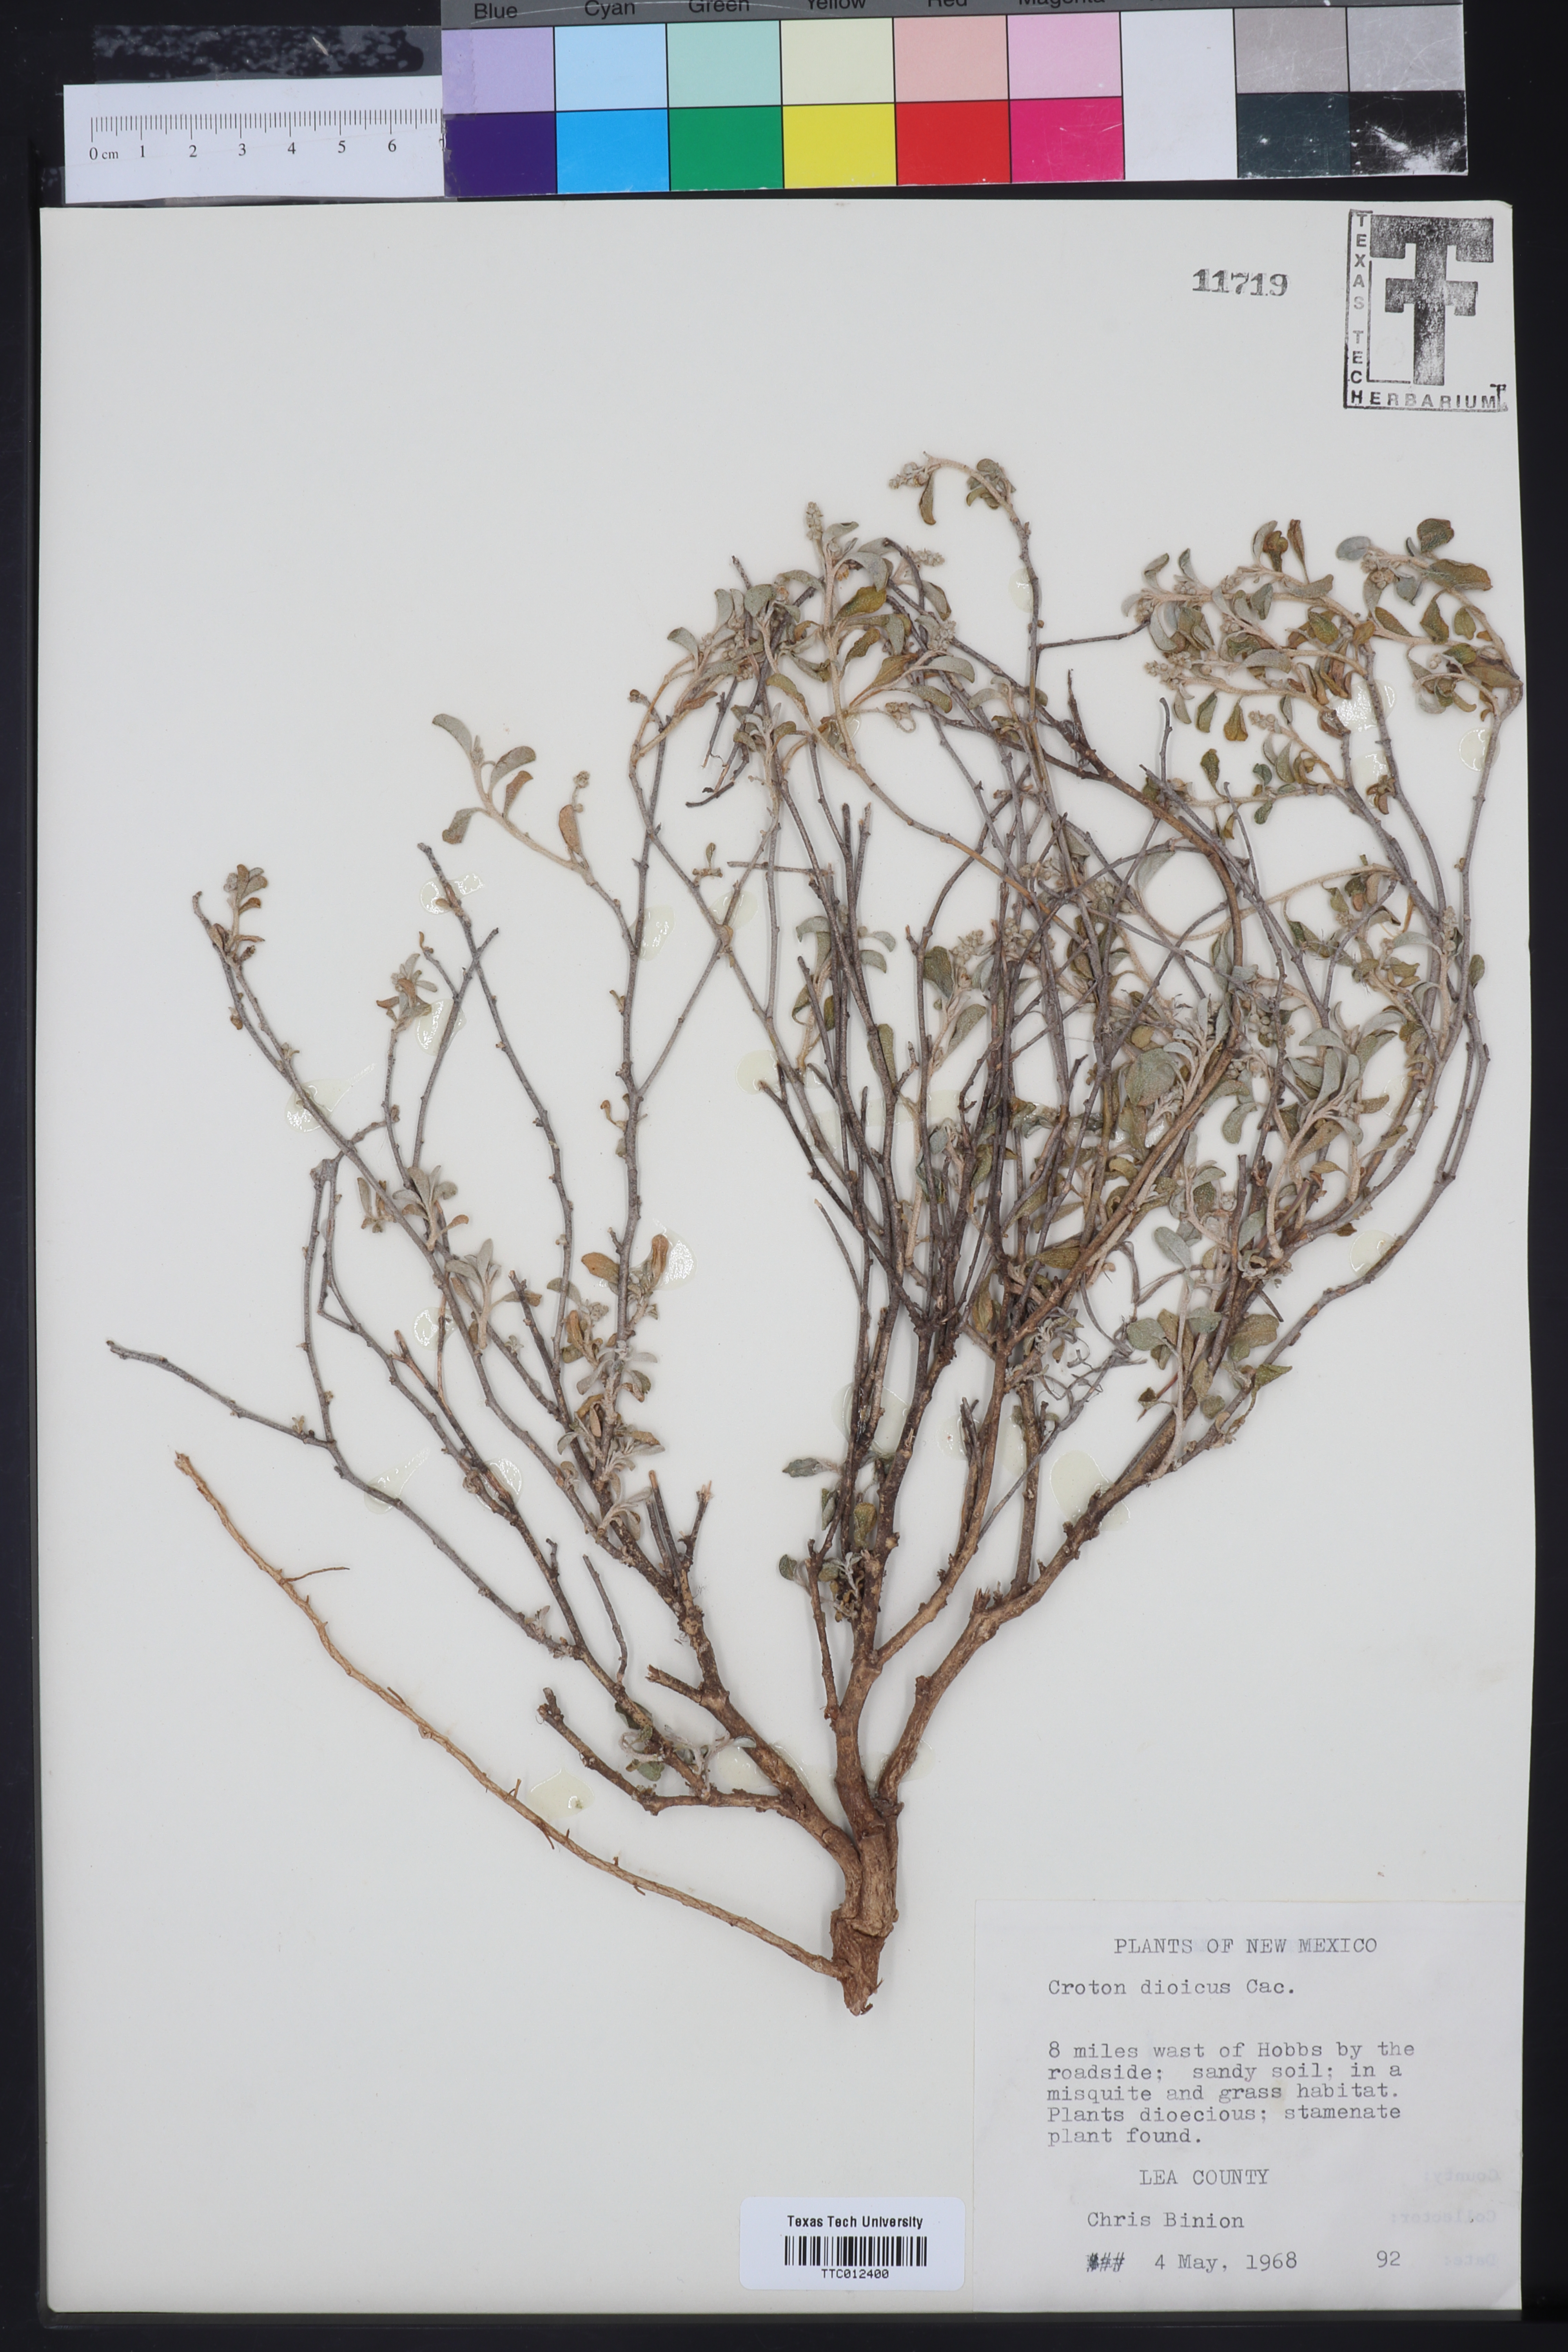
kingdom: Plantae
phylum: Tracheophyta
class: Magnoliopsida
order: Malpighiales
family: Euphorbiaceae
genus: Croton
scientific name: Croton dioicus
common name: Grassland croton
